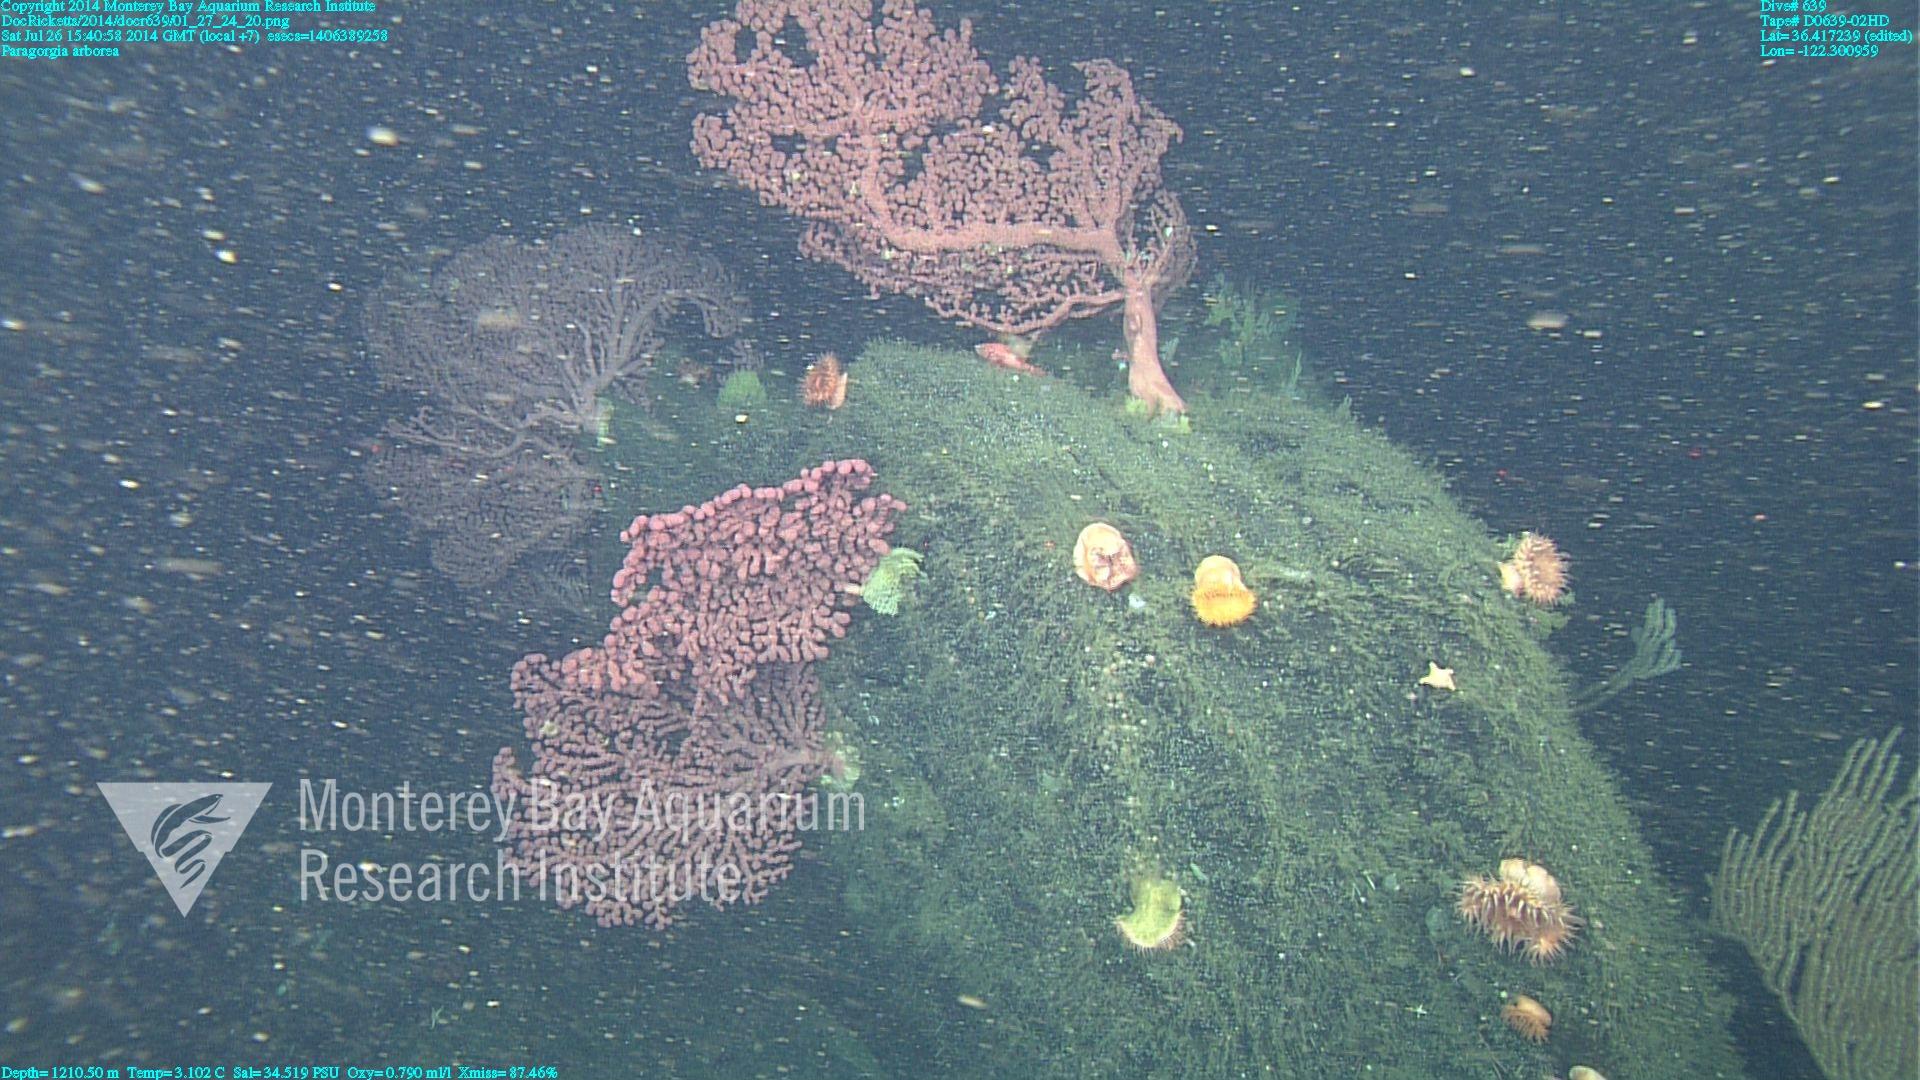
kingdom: Animalia
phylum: Cnidaria
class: Anthozoa
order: Scleralcyonacea
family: Coralliidae
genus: Paragorgia
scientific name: Paragorgia arborea
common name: Bubble gum coral
